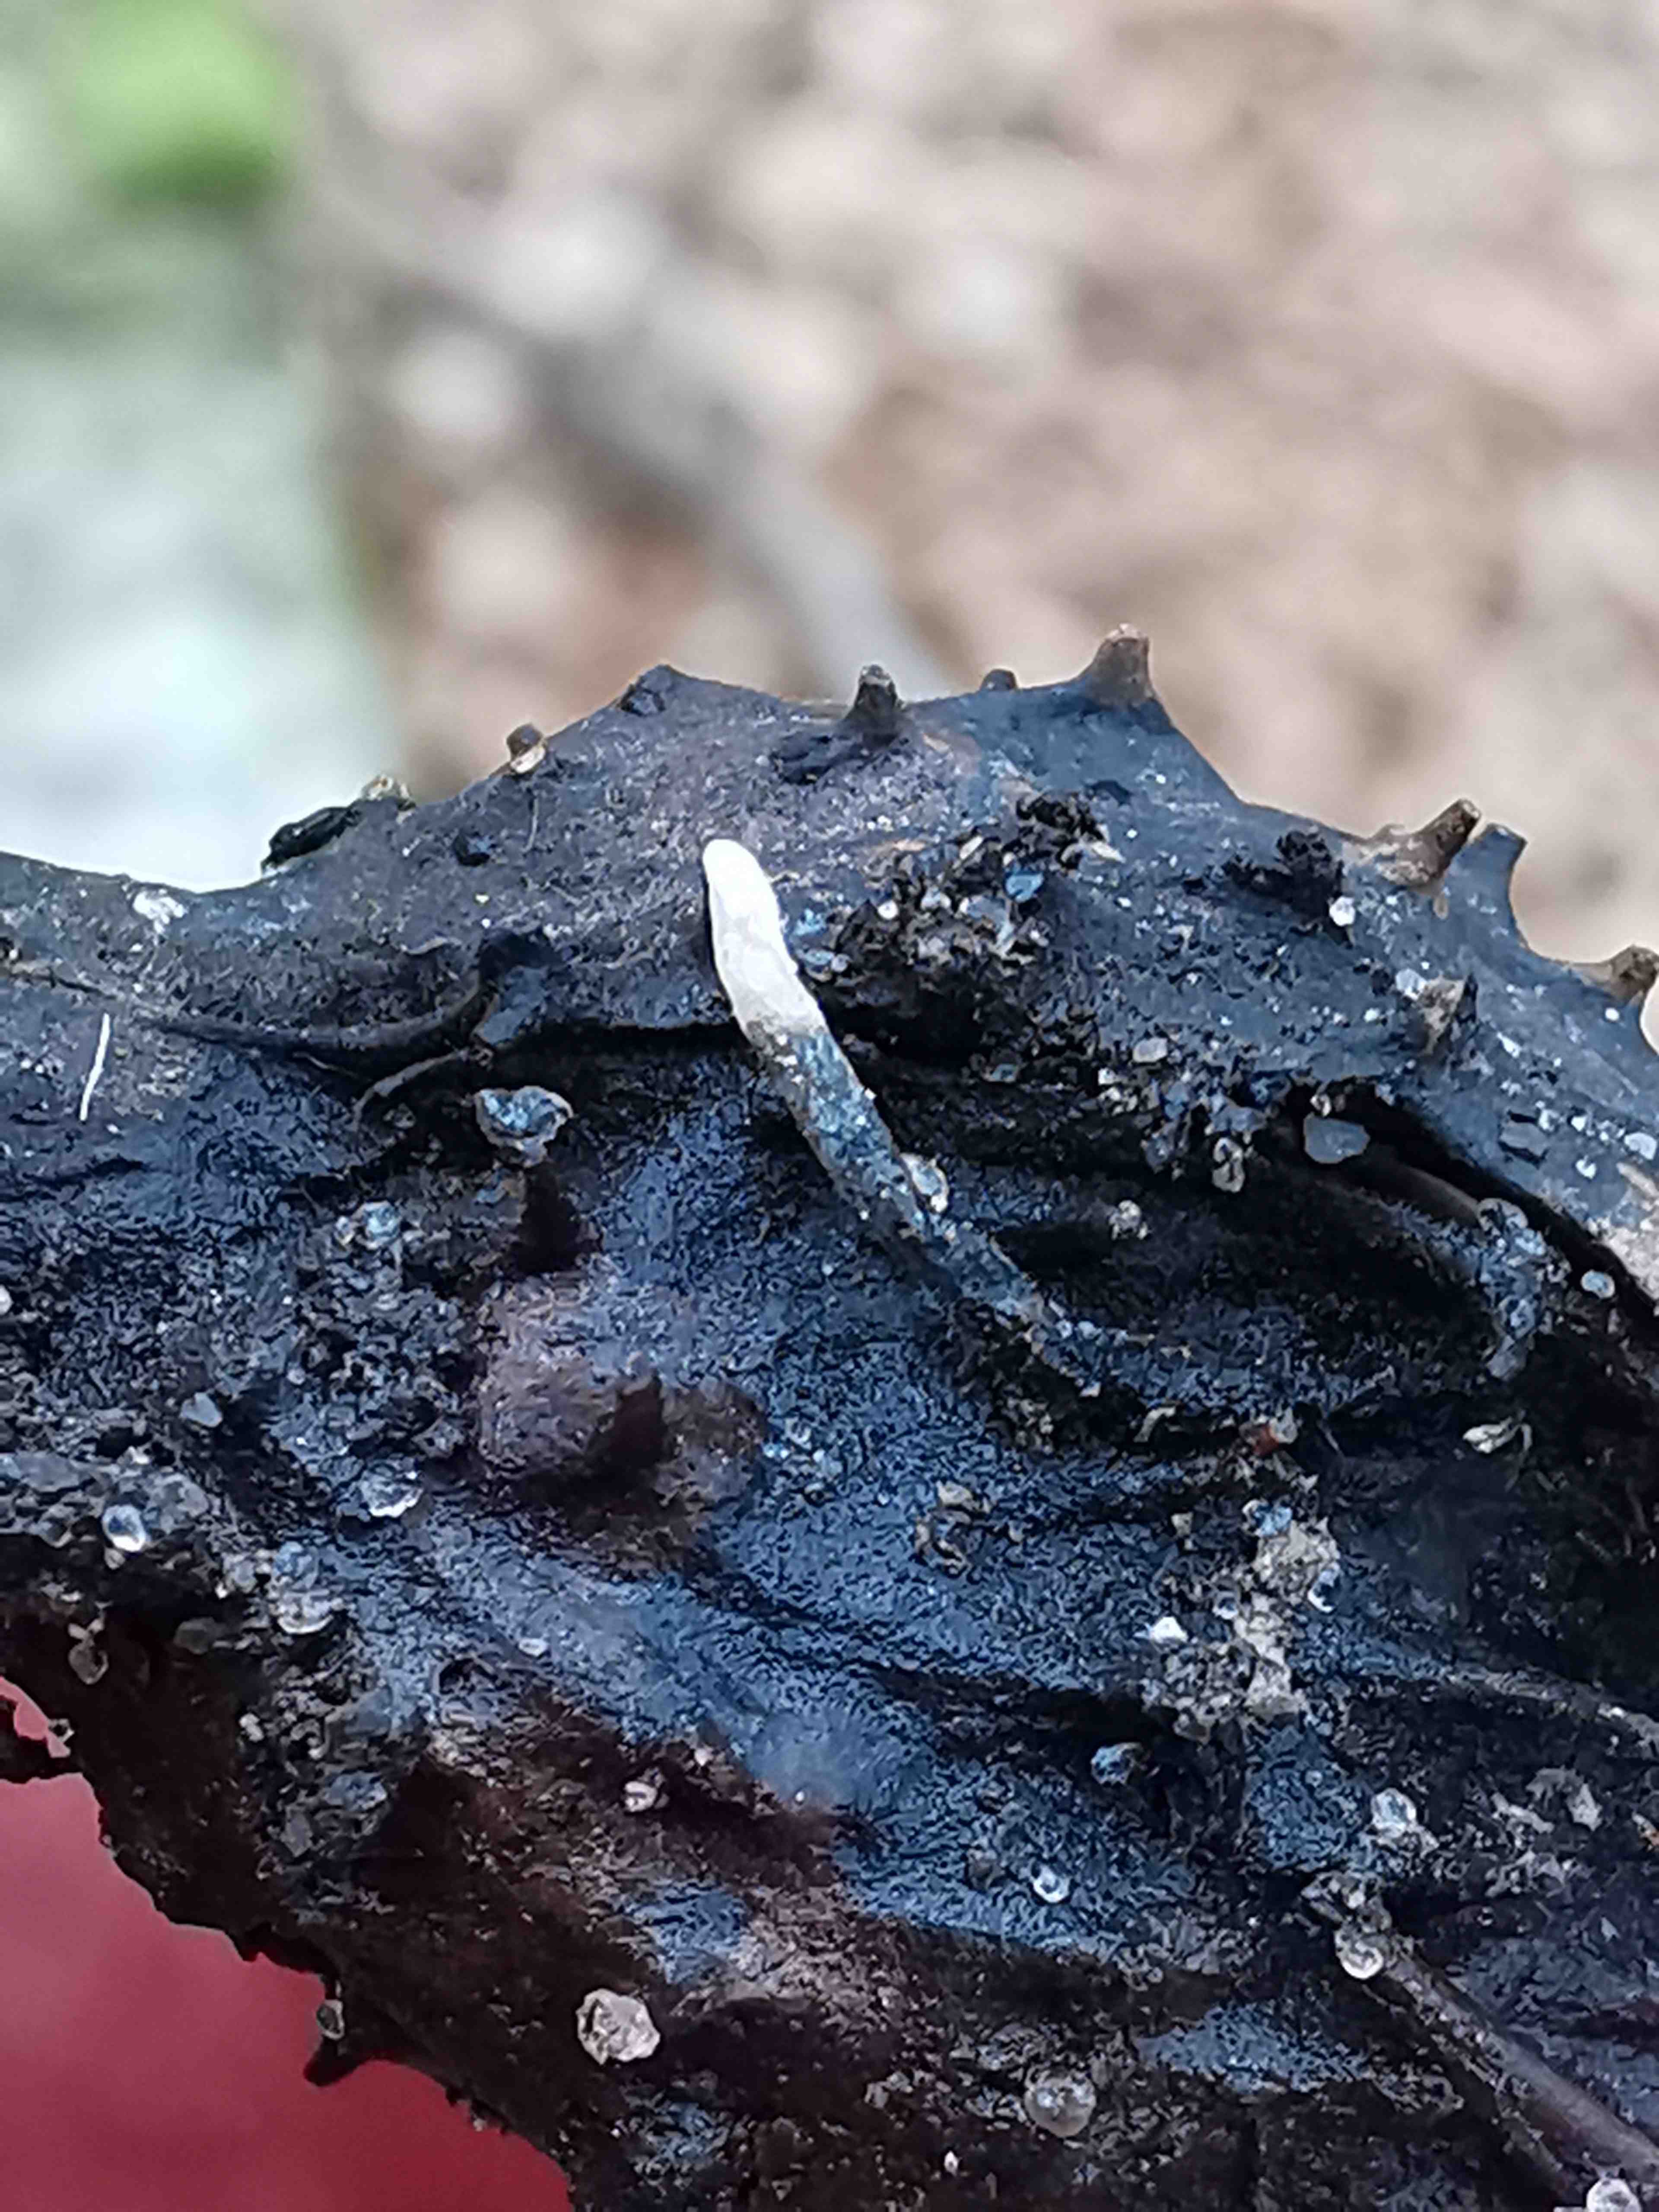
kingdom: Fungi
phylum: Ascomycota
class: Sordariomycetes
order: Xylariales
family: Xylariaceae
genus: Xylaria
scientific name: Xylaria carpophila
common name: bogskål-stødsvamp
